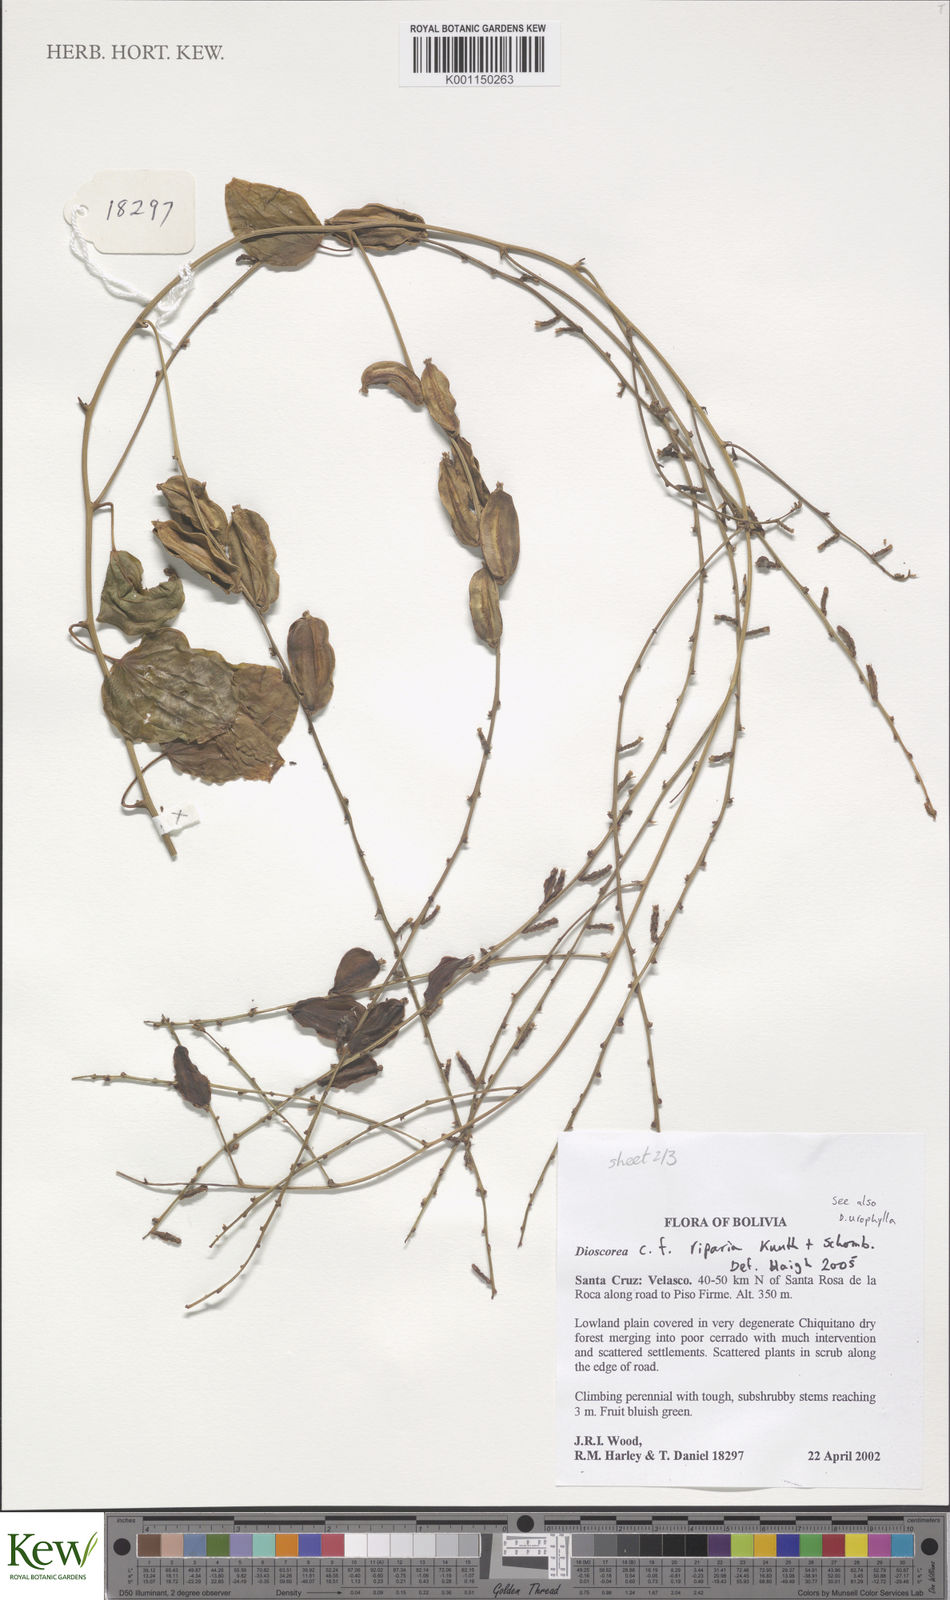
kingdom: Plantae
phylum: Tracheophyta
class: Liliopsida
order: Dioscoreales
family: Dioscoreaceae
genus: Dioscorea
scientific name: Dioscorea acanthogene
